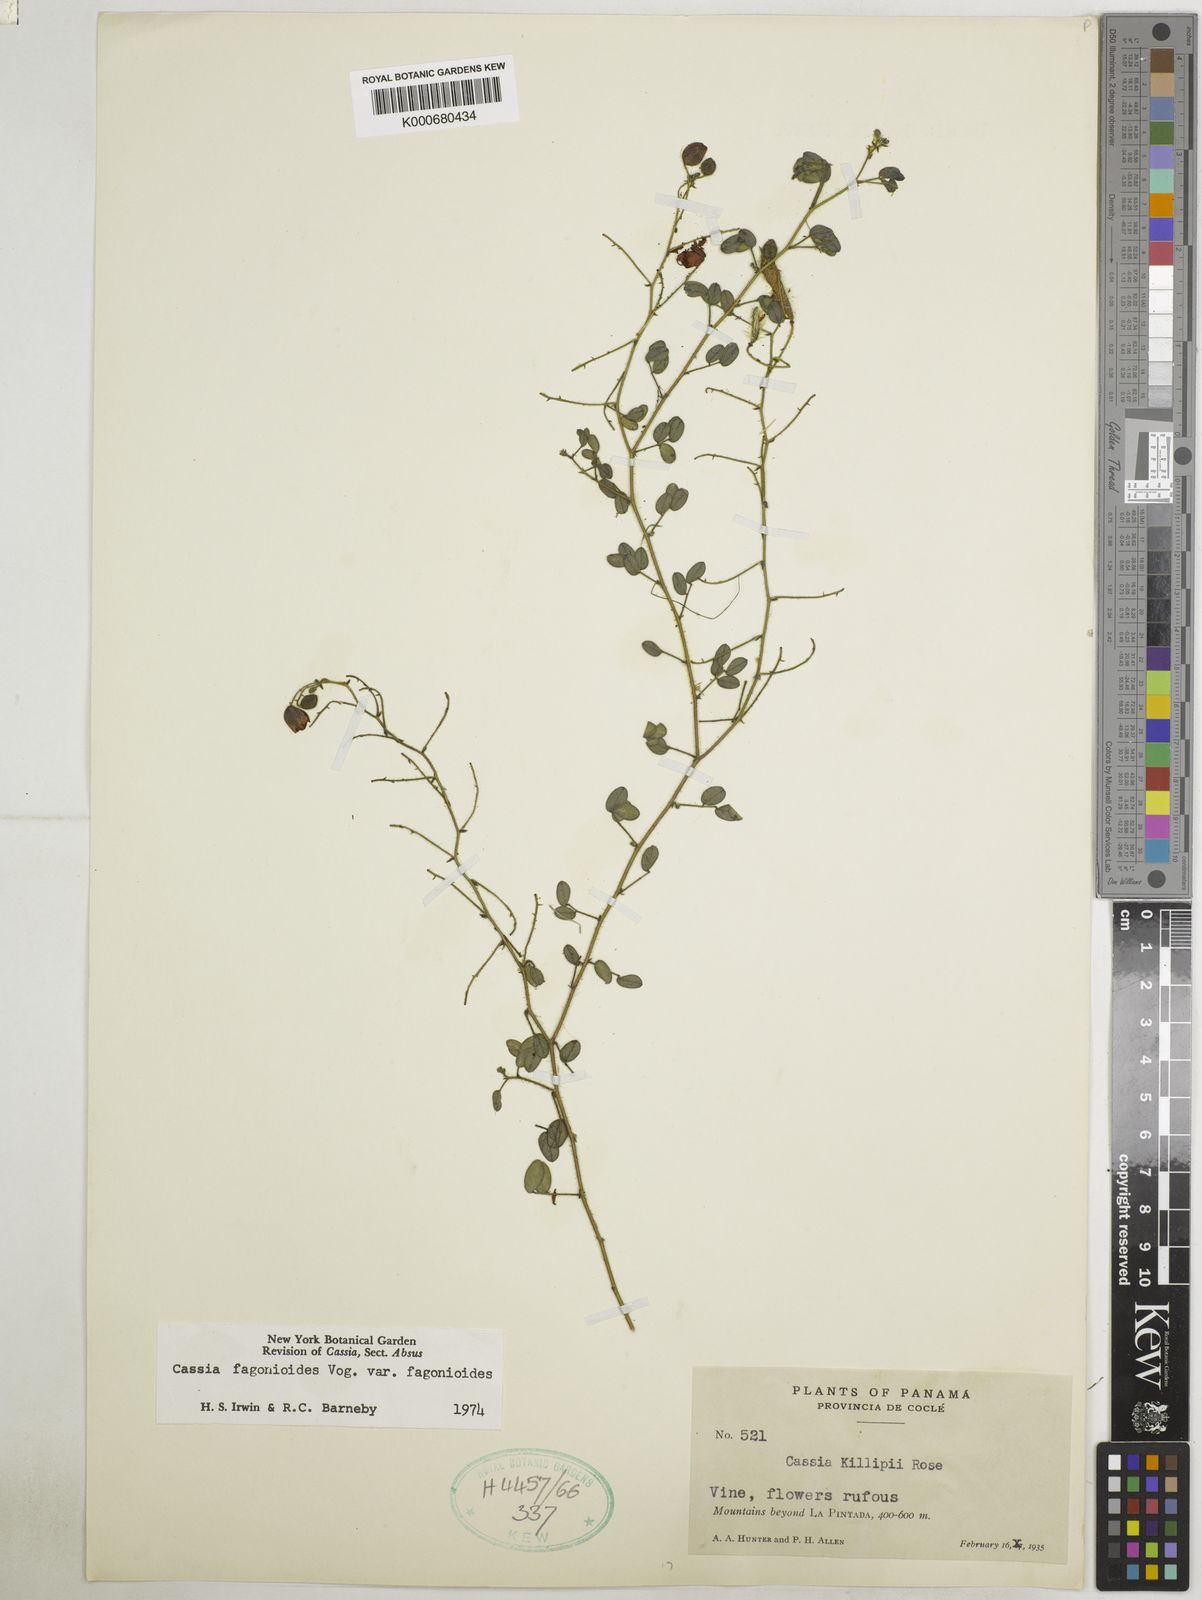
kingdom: Plantae
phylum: Tracheophyta
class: Magnoliopsida
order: Fabales
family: Fabaceae
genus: Chamaecrista
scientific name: Chamaecrista
